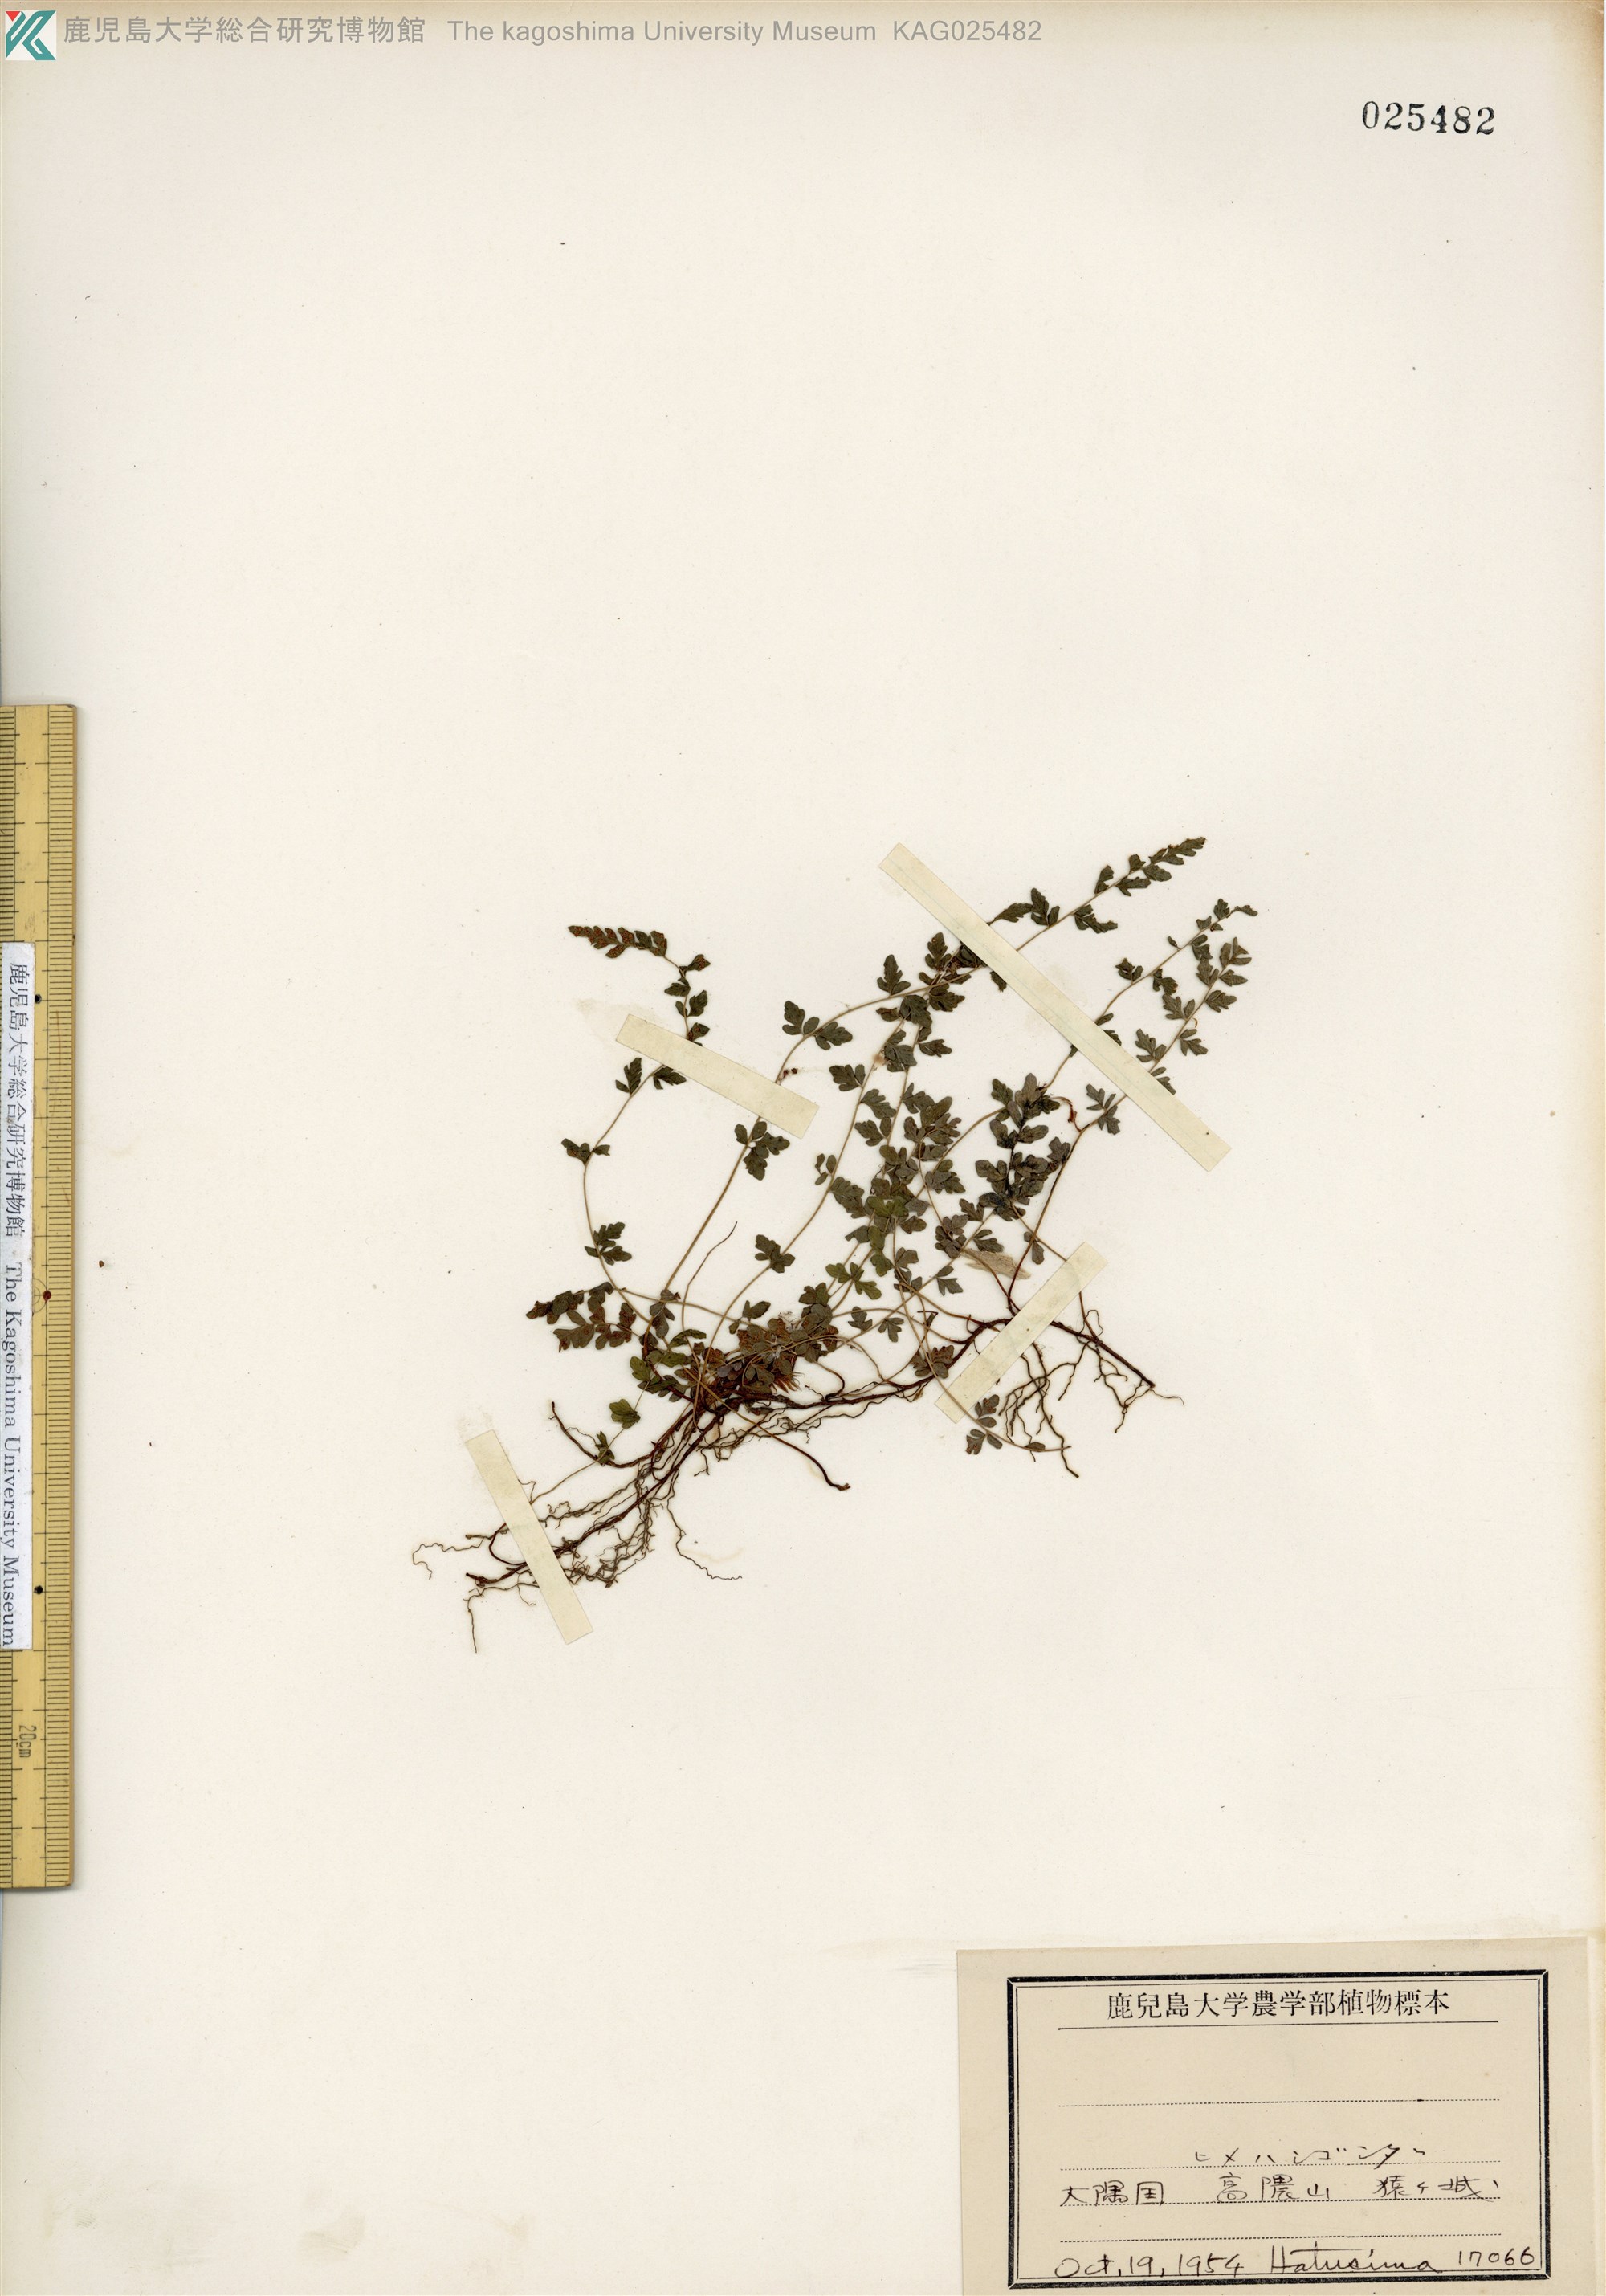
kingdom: Plantae
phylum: Tracheophyta
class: Polypodiopsida
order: Polypodiales
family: Thelypteridaceae
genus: Amauropelta
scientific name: Amauropelta cystopteroides
